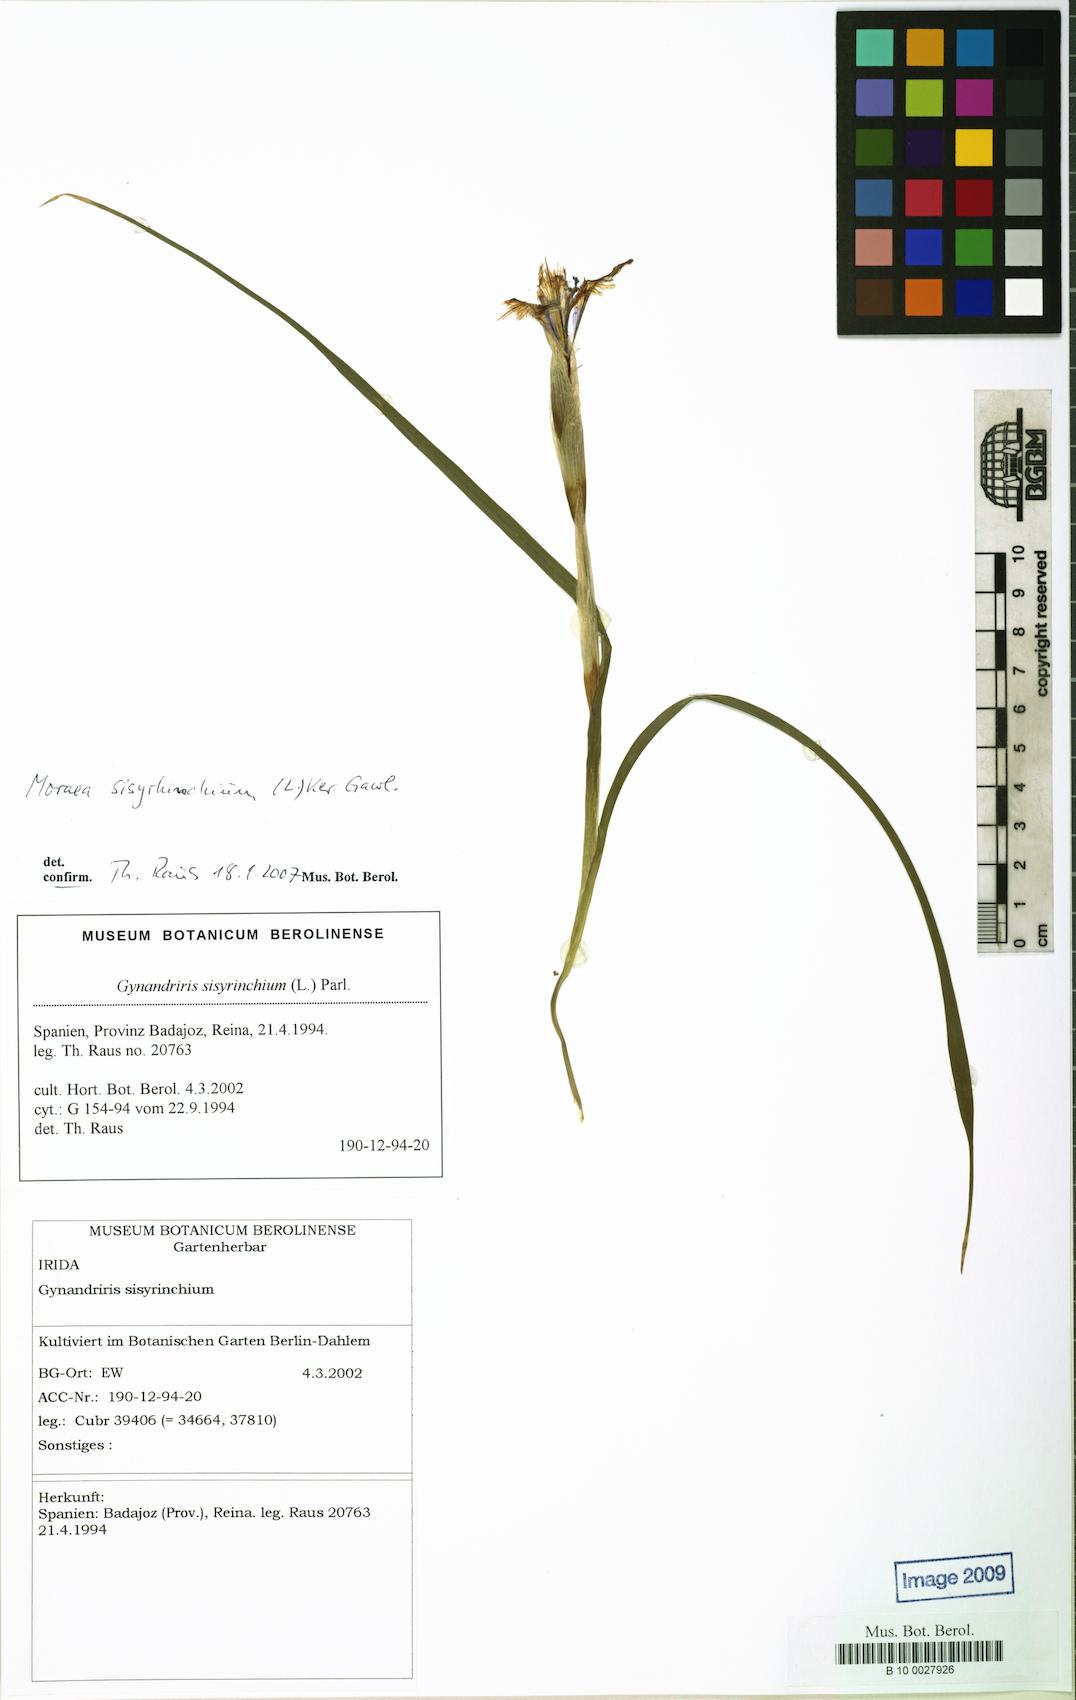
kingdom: Plantae
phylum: Tracheophyta
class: Liliopsida
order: Asparagales
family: Iridaceae
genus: Moraea
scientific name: Moraea sisyrinchium
